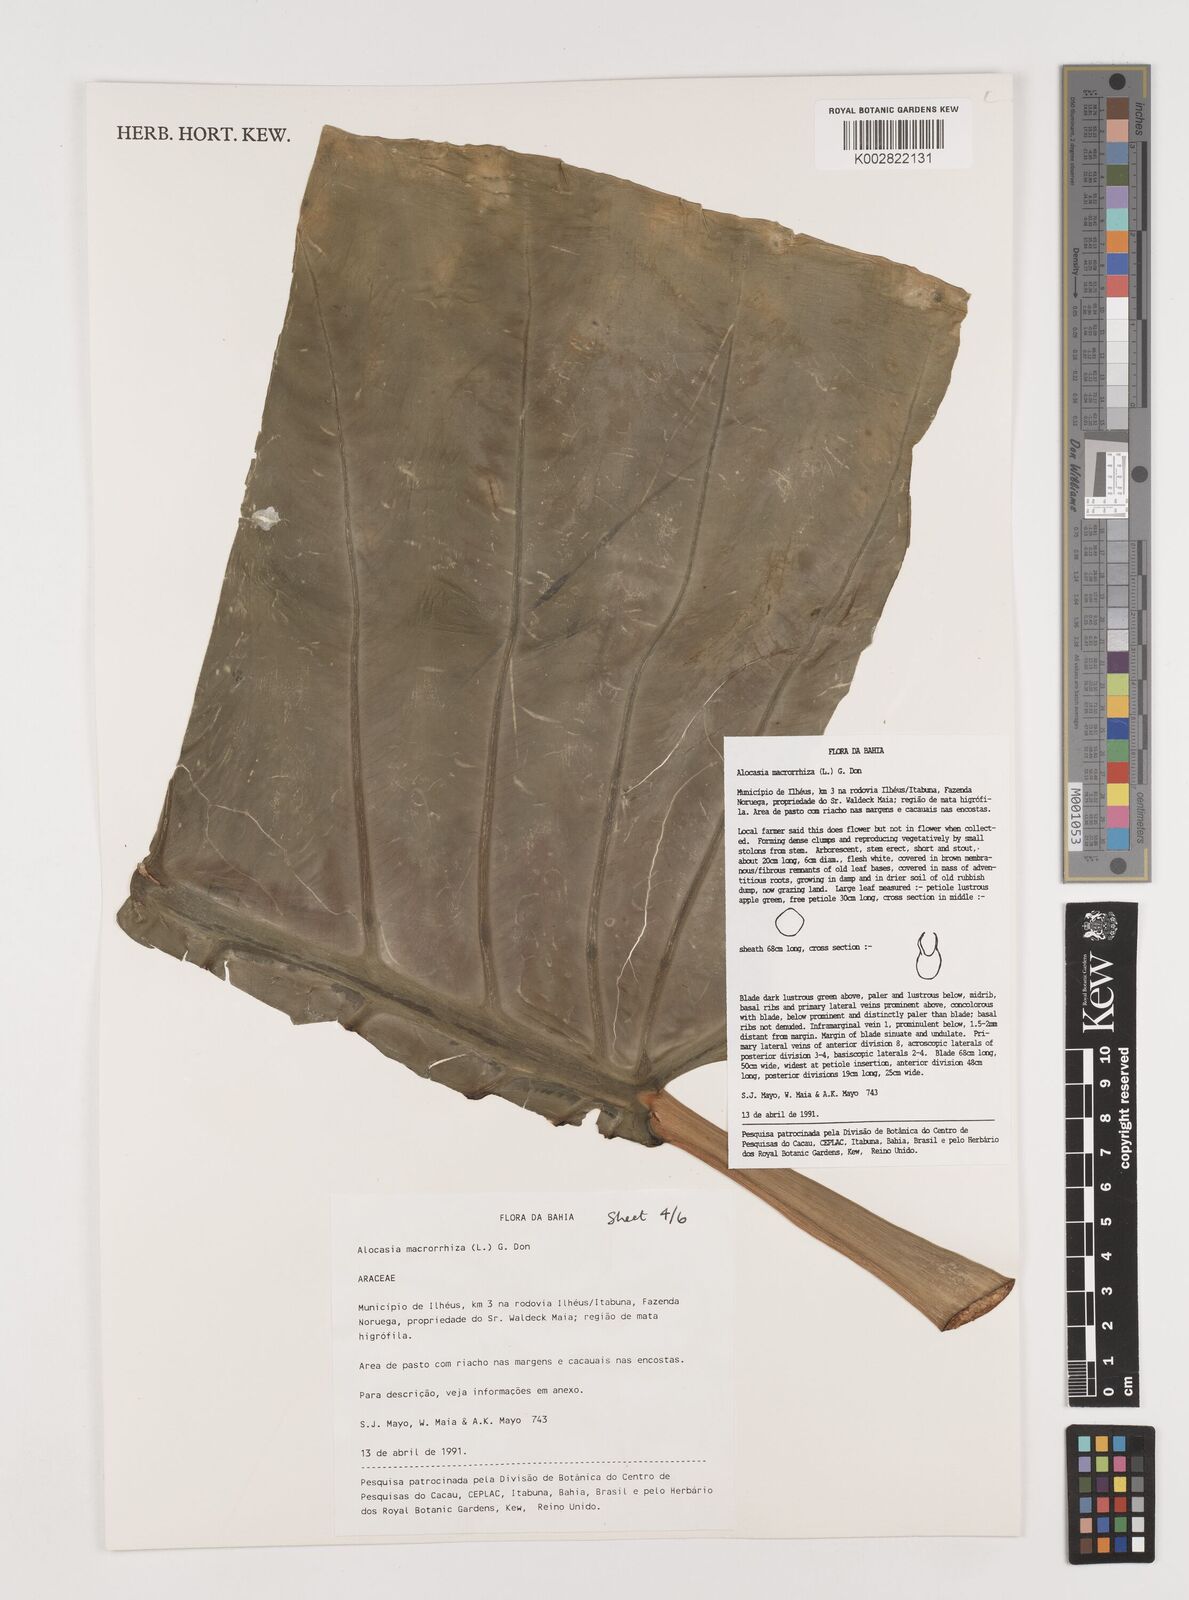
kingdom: Plantae
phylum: Tracheophyta
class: Liliopsida
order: Alismatales
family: Araceae
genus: Alocasia
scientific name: Alocasia macrorrhizos
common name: Giant taro
